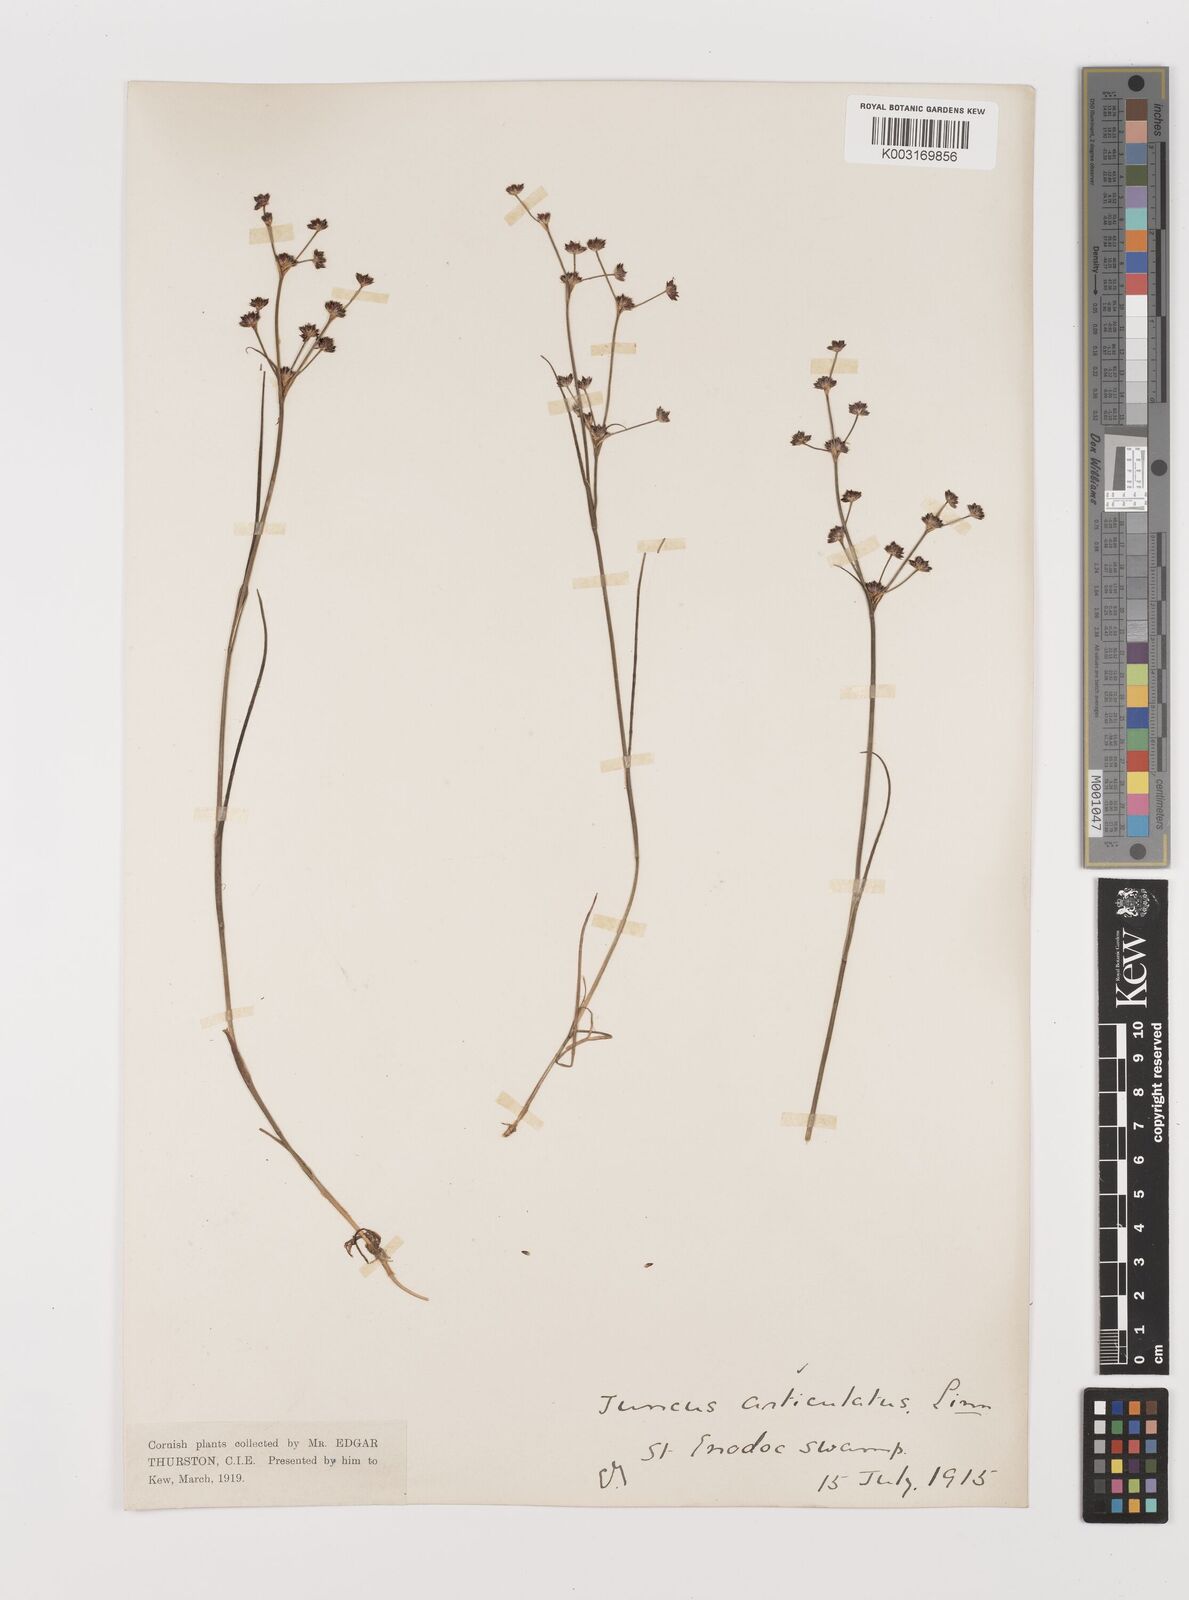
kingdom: Plantae
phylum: Tracheophyta
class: Liliopsida
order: Poales
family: Juncaceae
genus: Juncus
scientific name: Juncus articulatus
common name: Jointed rush
